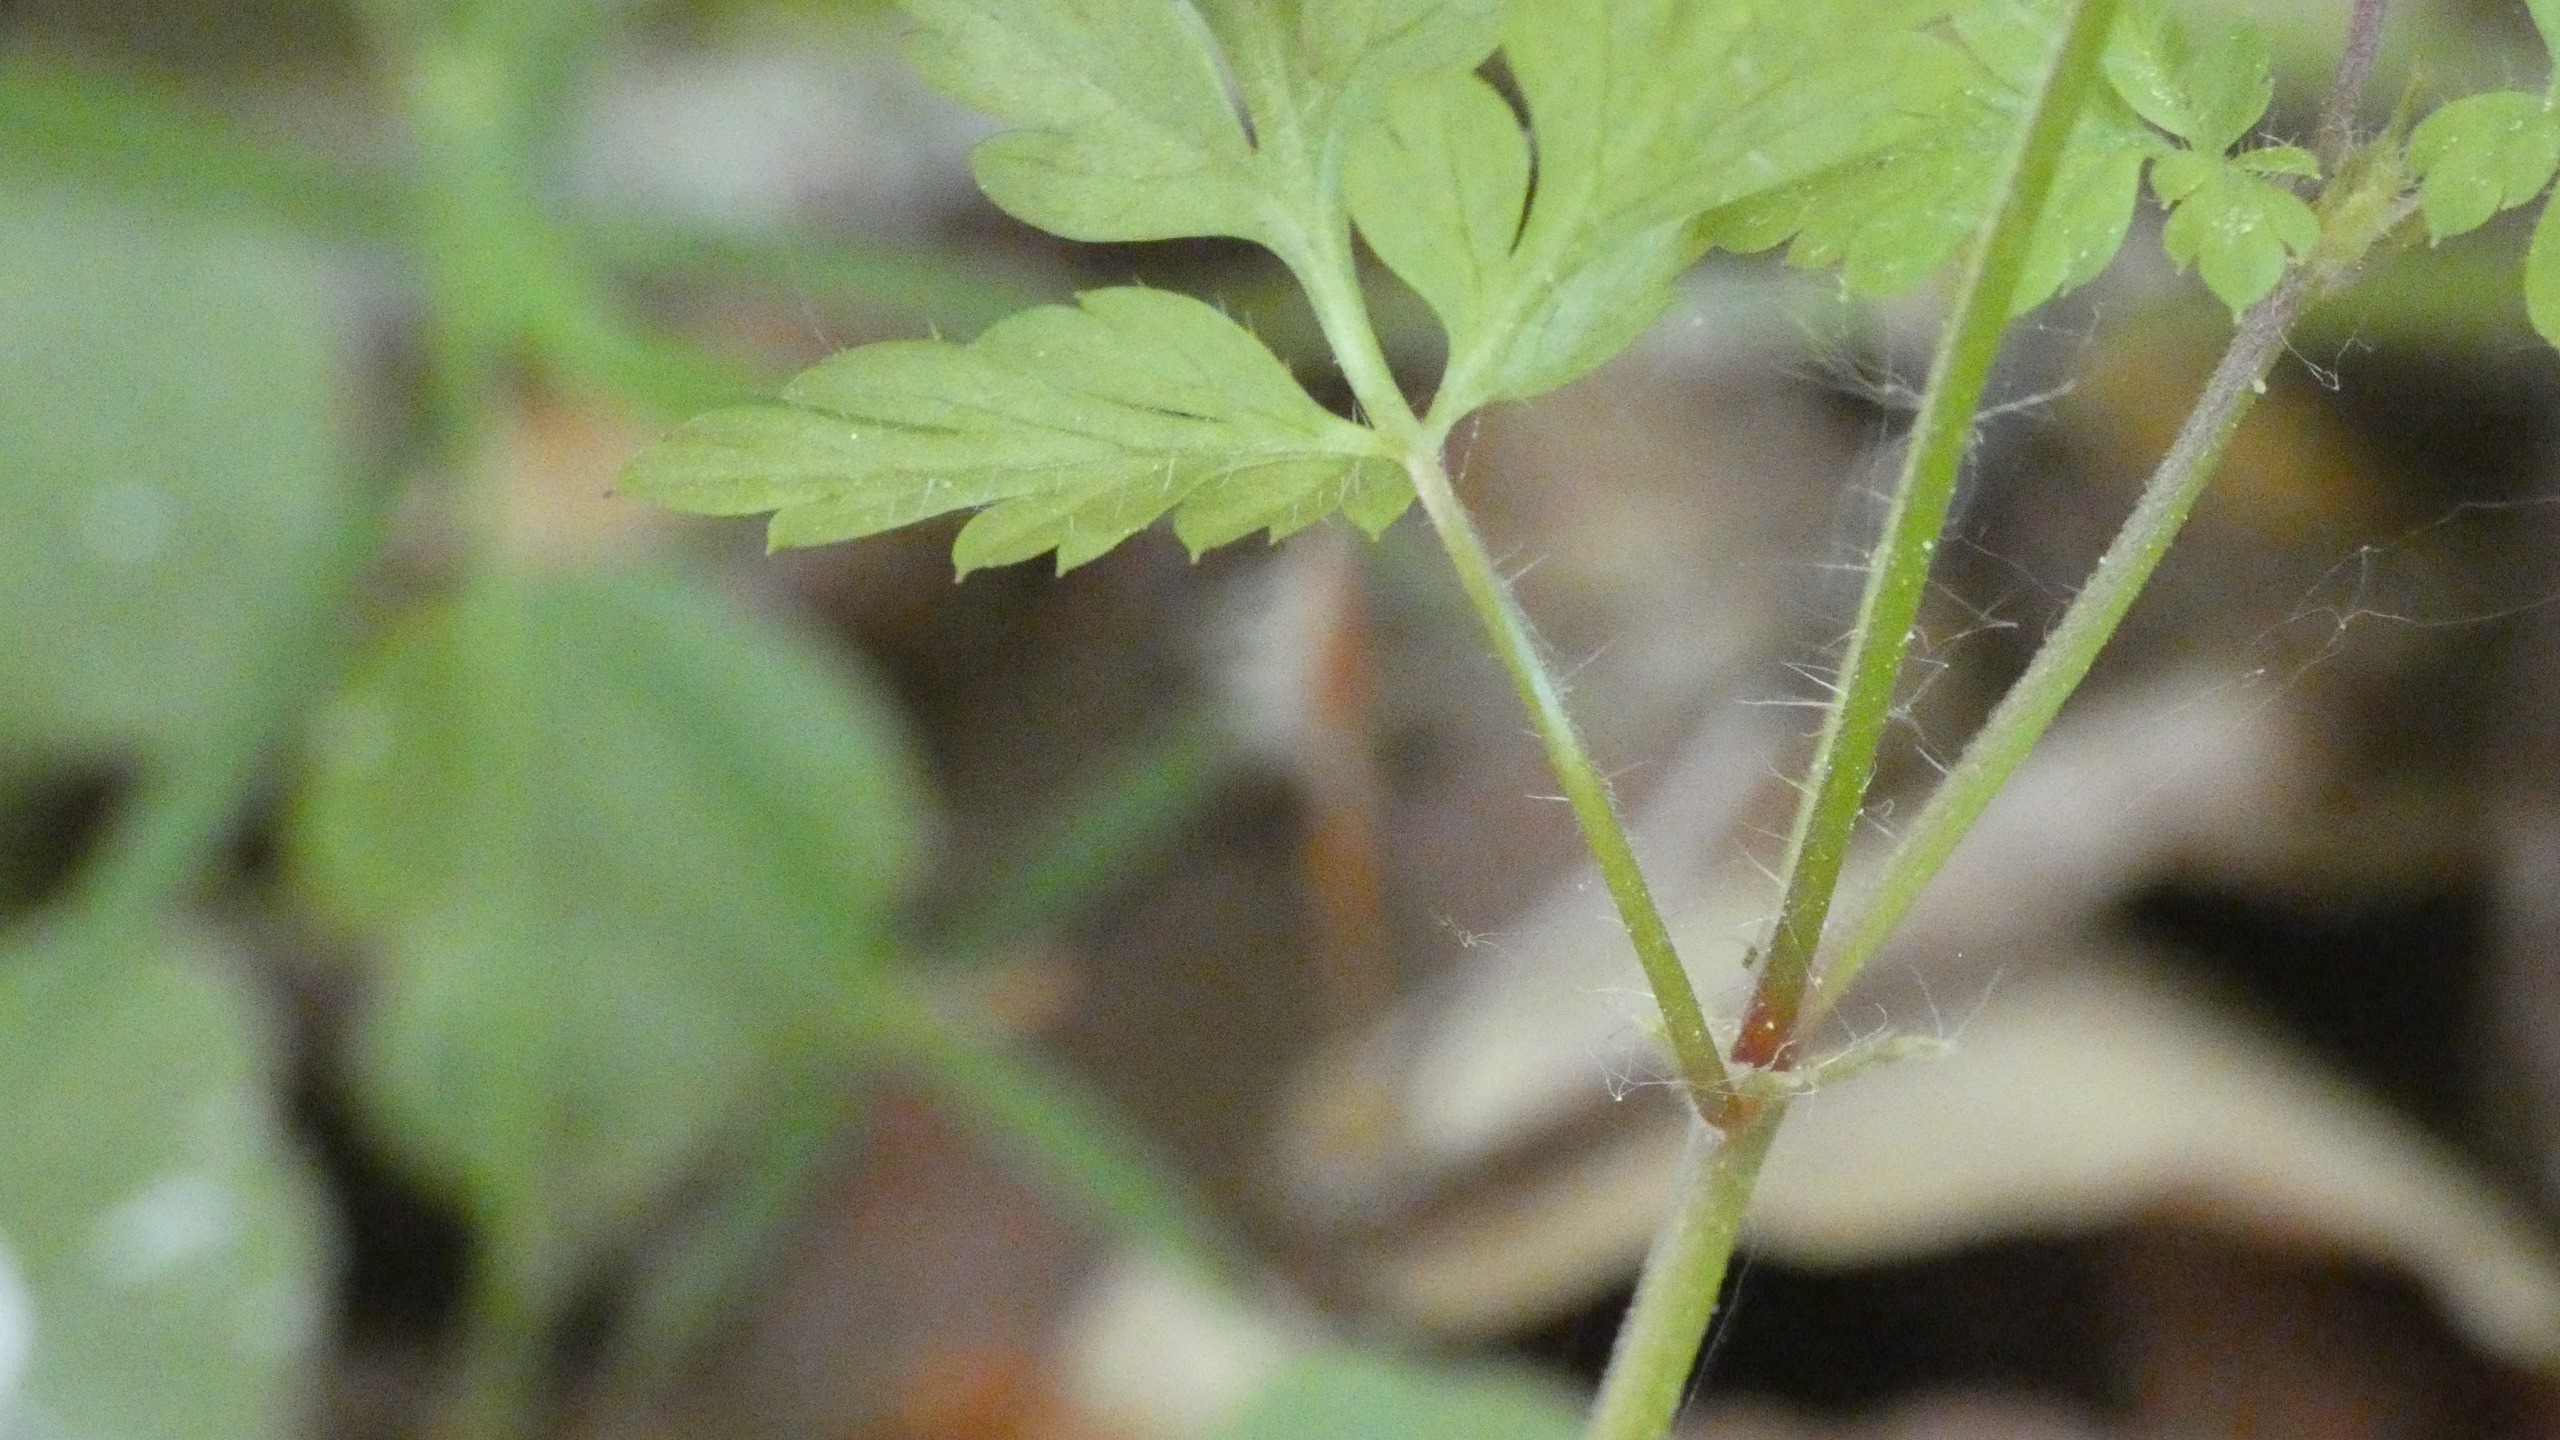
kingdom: Plantae
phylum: Tracheophyta
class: Magnoliopsida
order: Geraniales
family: Geraniaceae
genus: Geranium
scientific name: Geranium robertianum
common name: Stinkende storkenæb
